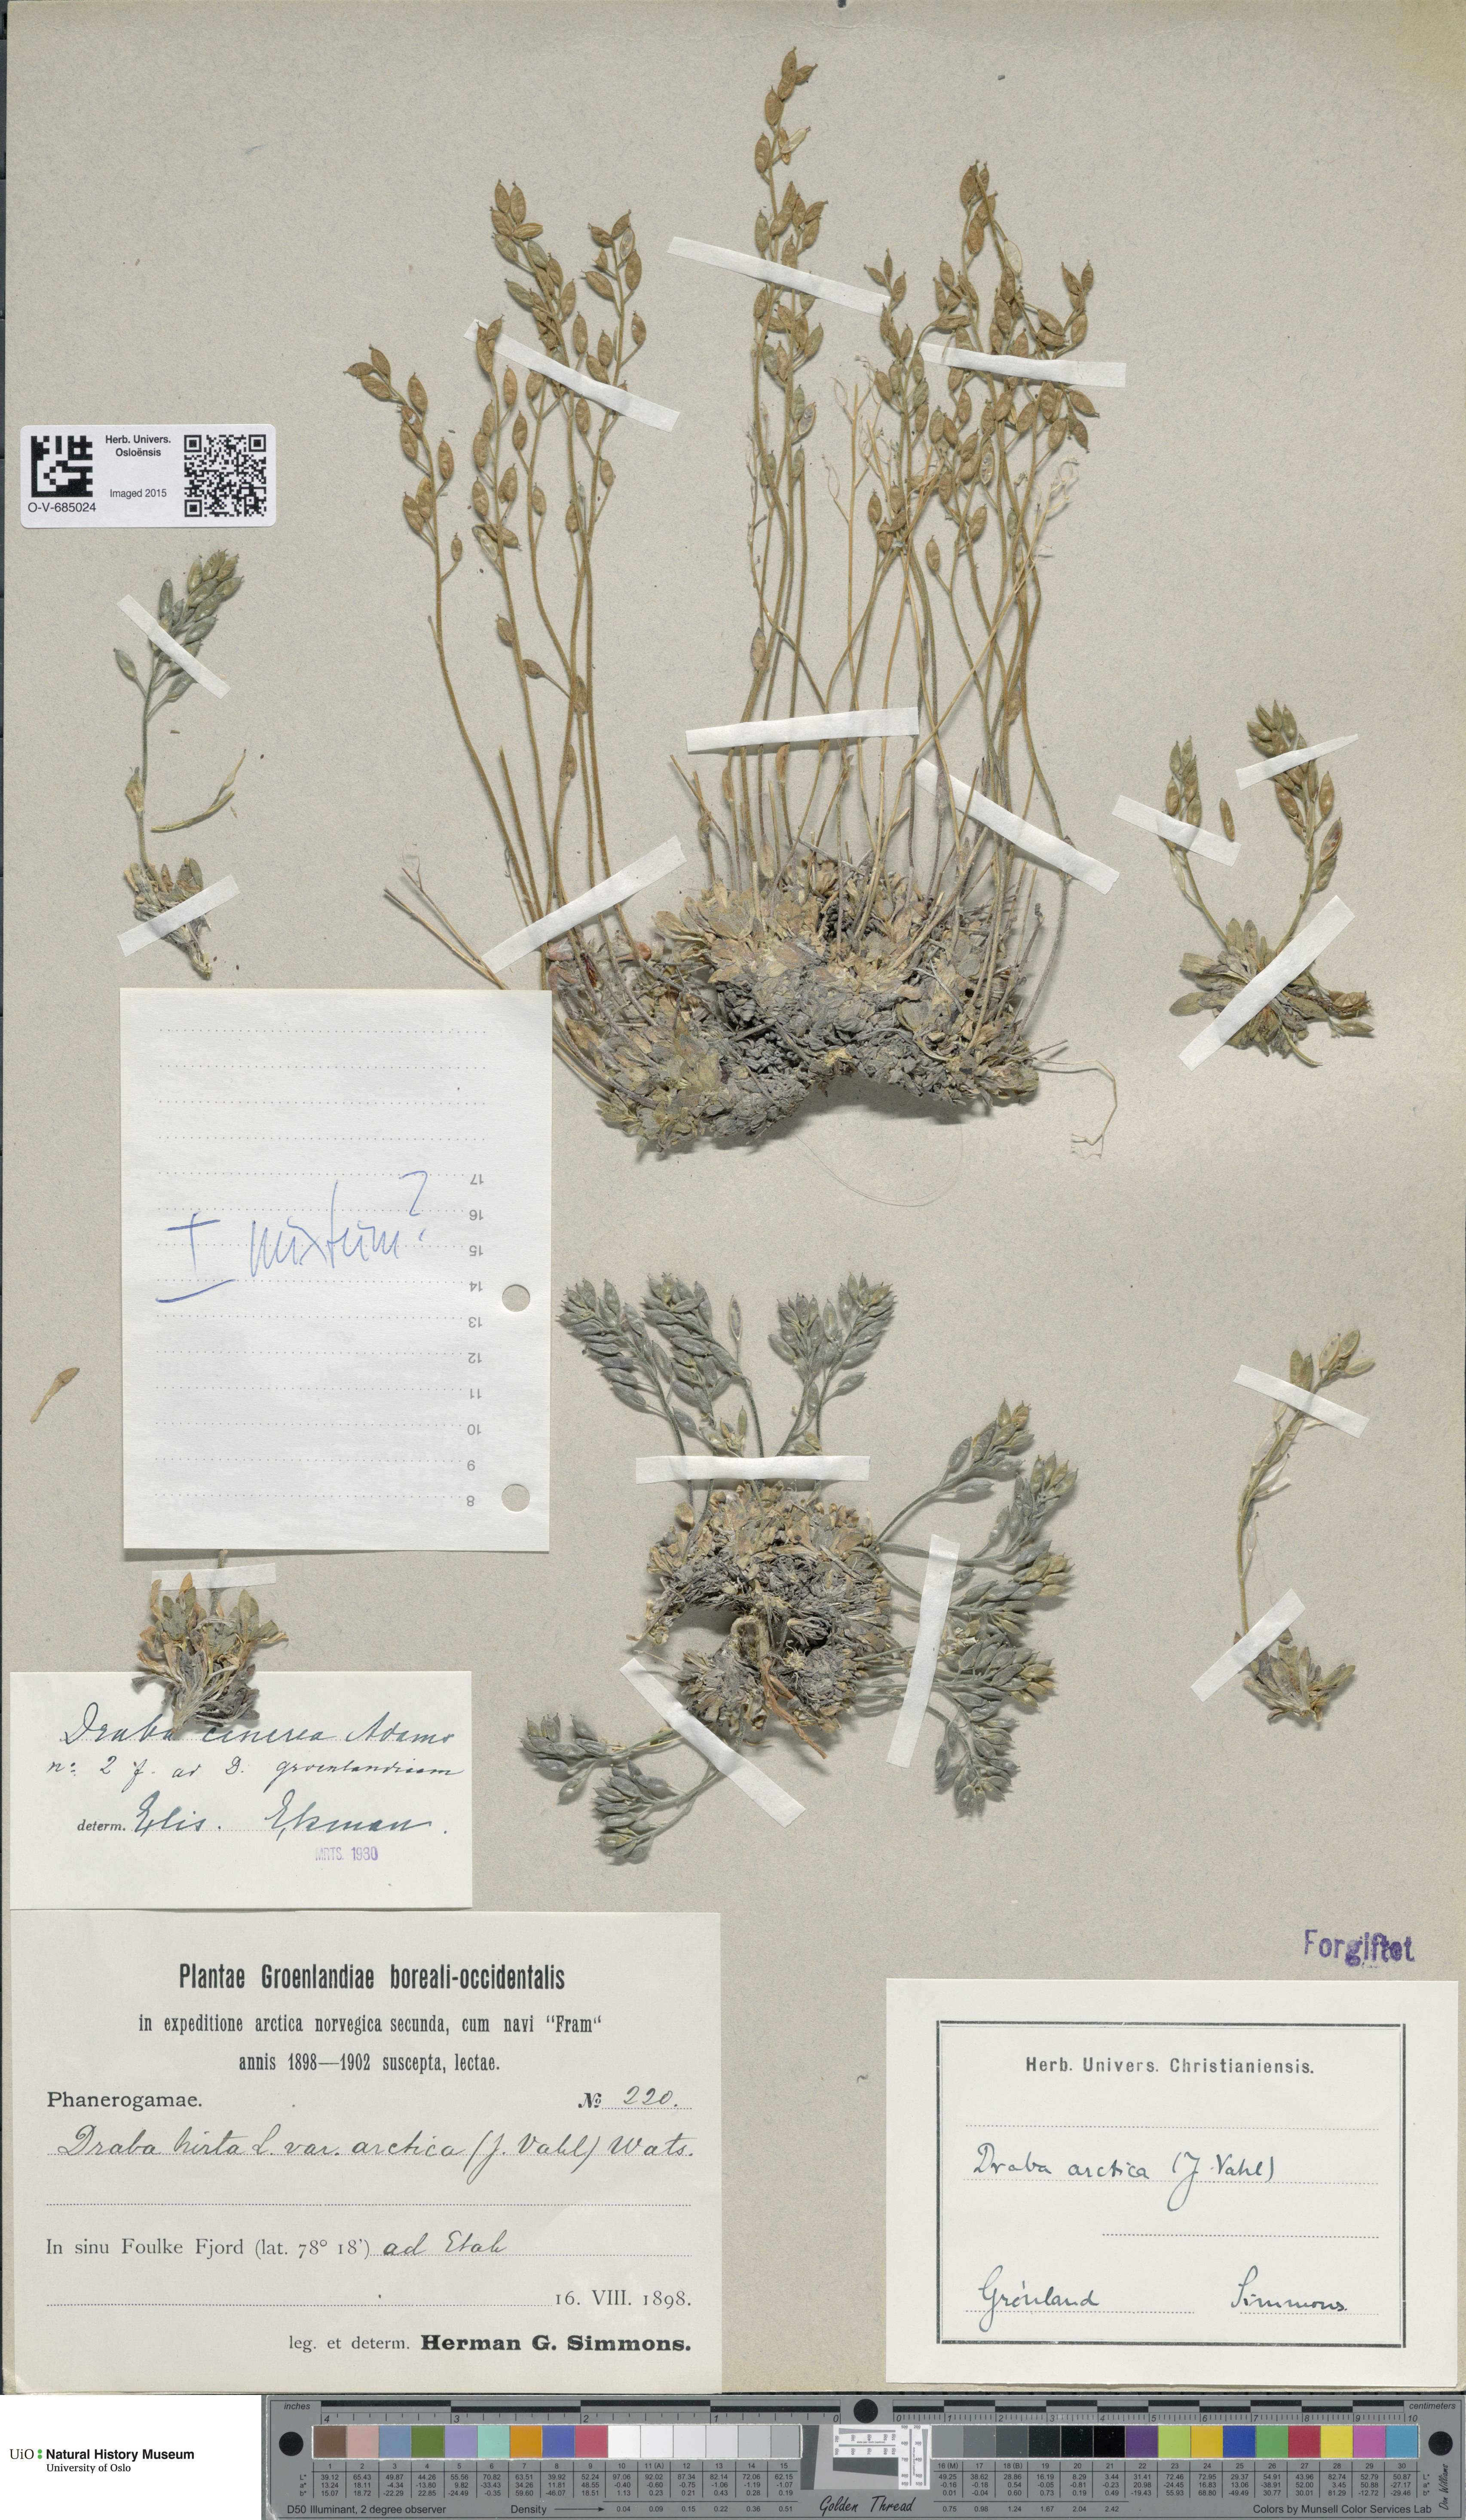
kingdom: Plantae
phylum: Tracheophyta
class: Magnoliopsida
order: Brassicales
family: Brassicaceae
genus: Draba
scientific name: Draba cinerea
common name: Ash-coloured whitlow-grass
